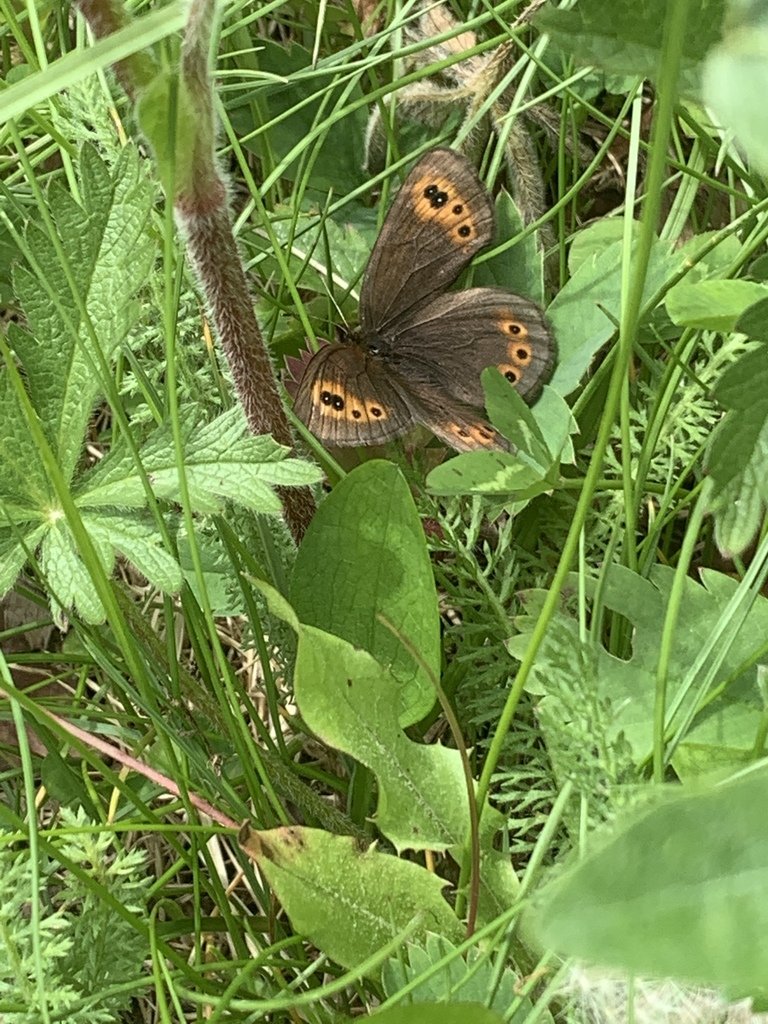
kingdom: Animalia
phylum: Arthropoda
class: Insecta
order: Lepidoptera
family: Nymphalidae
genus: Erebia
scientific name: Erebia epipsodea
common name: Common Alpine
